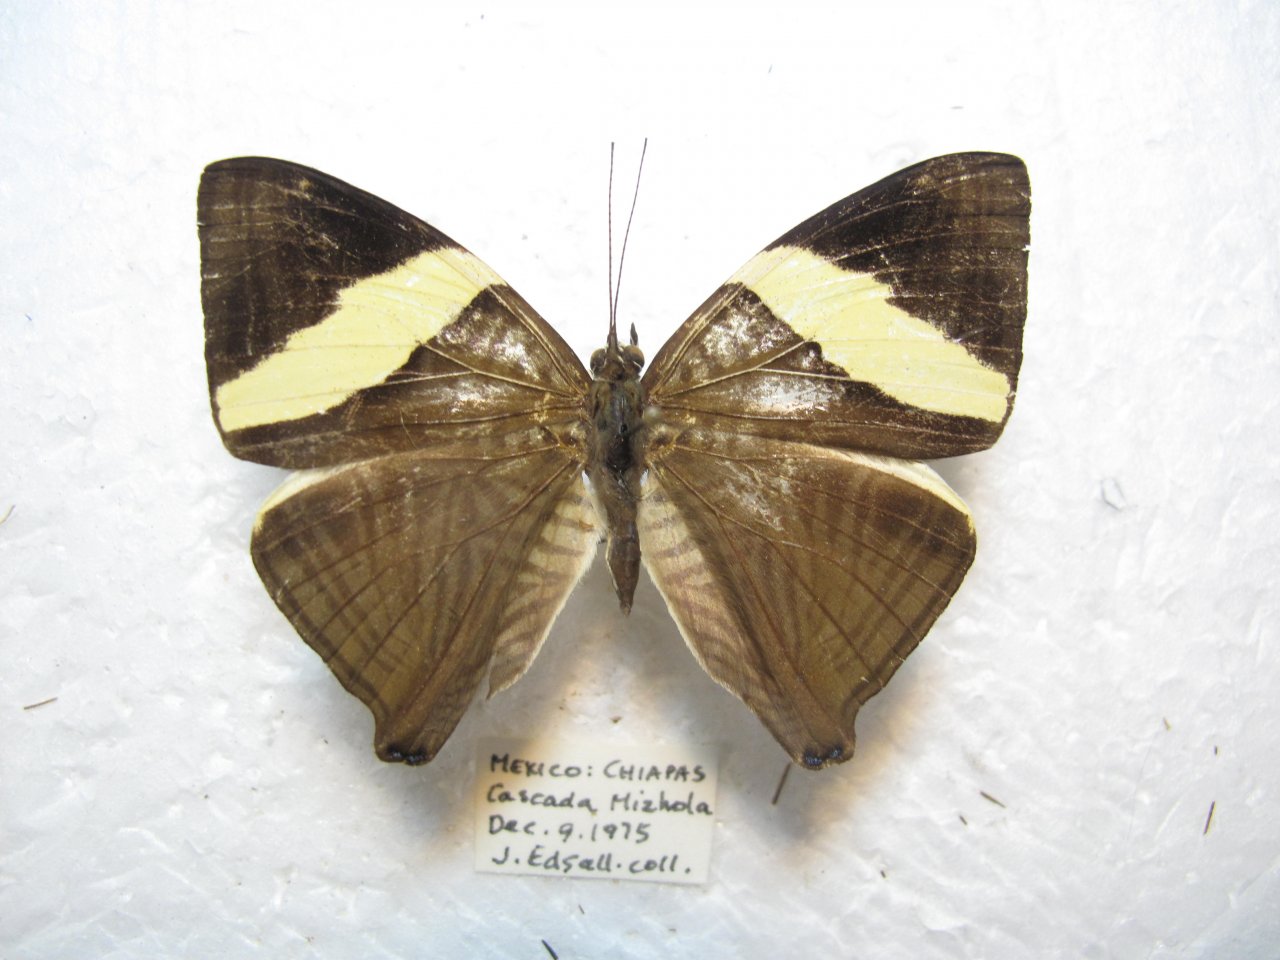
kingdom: Animalia
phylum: Arthropoda
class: Insecta
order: Lepidoptera
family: Nymphalidae
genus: Colobura
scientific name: Colobura dirce
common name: Dirce Beauty
